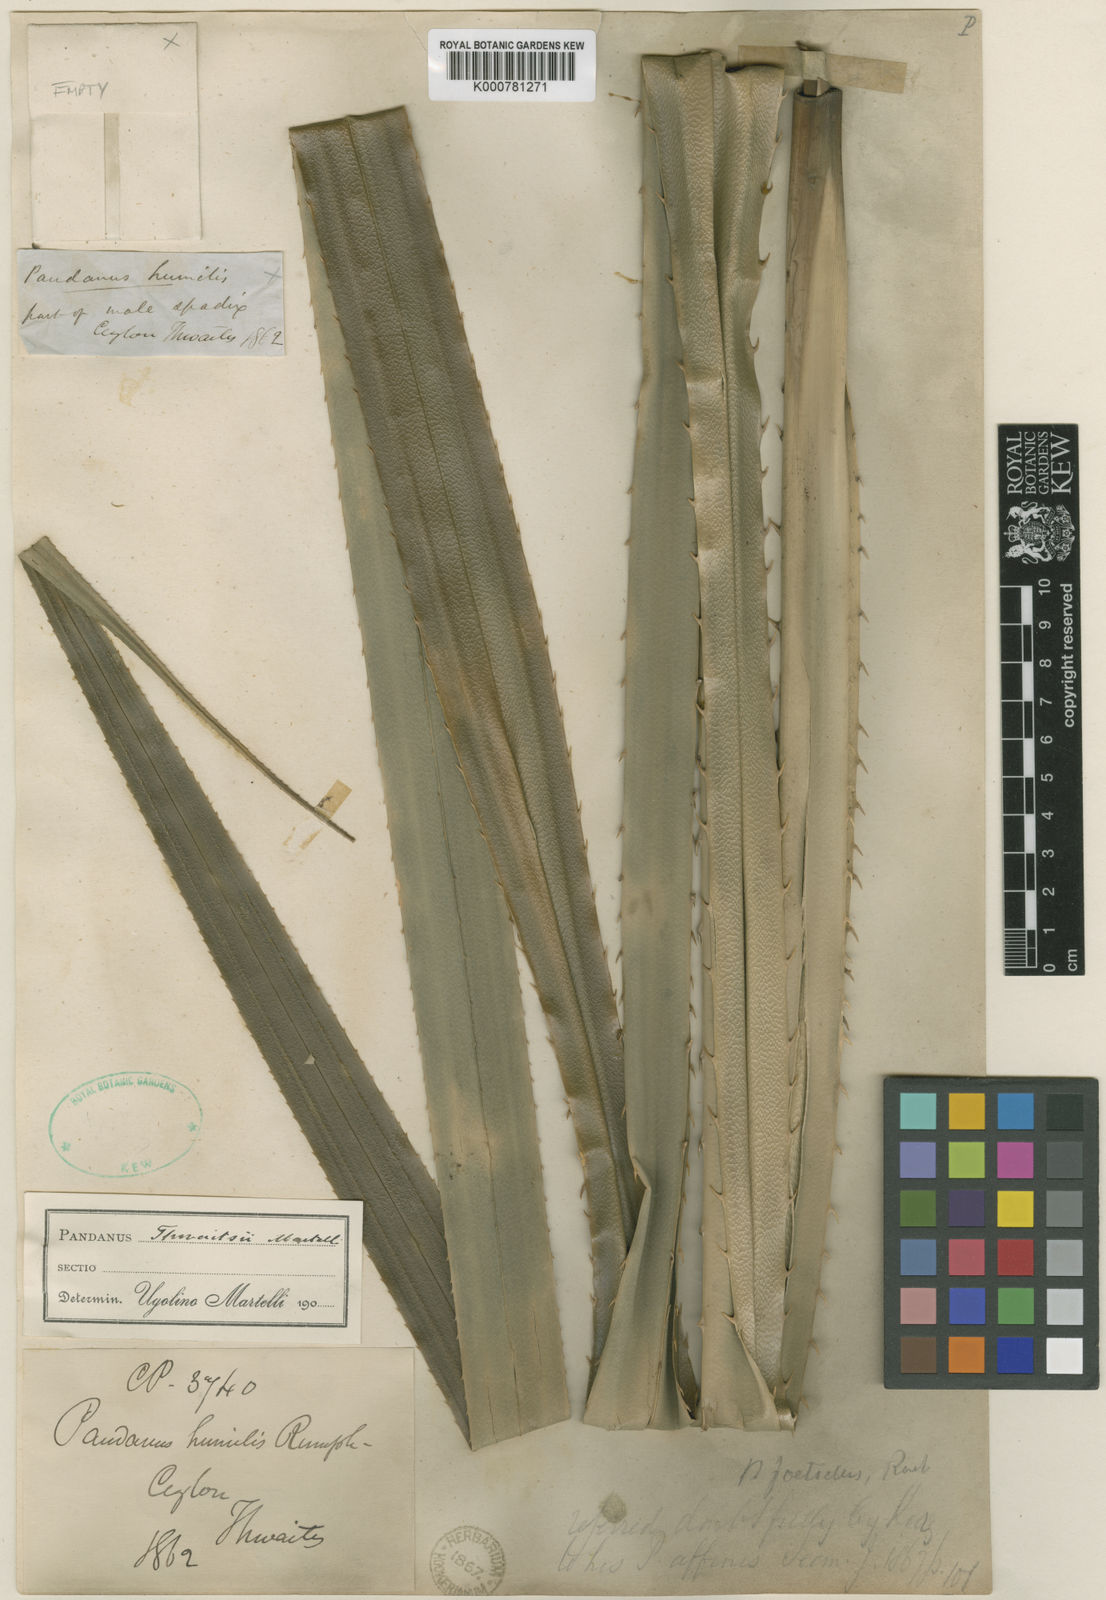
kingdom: Plantae
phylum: Tracheophyta
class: Liliopsida
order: Pandanales
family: Pandanaceae
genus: Benstonea
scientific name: Benstonea thwaitesii
